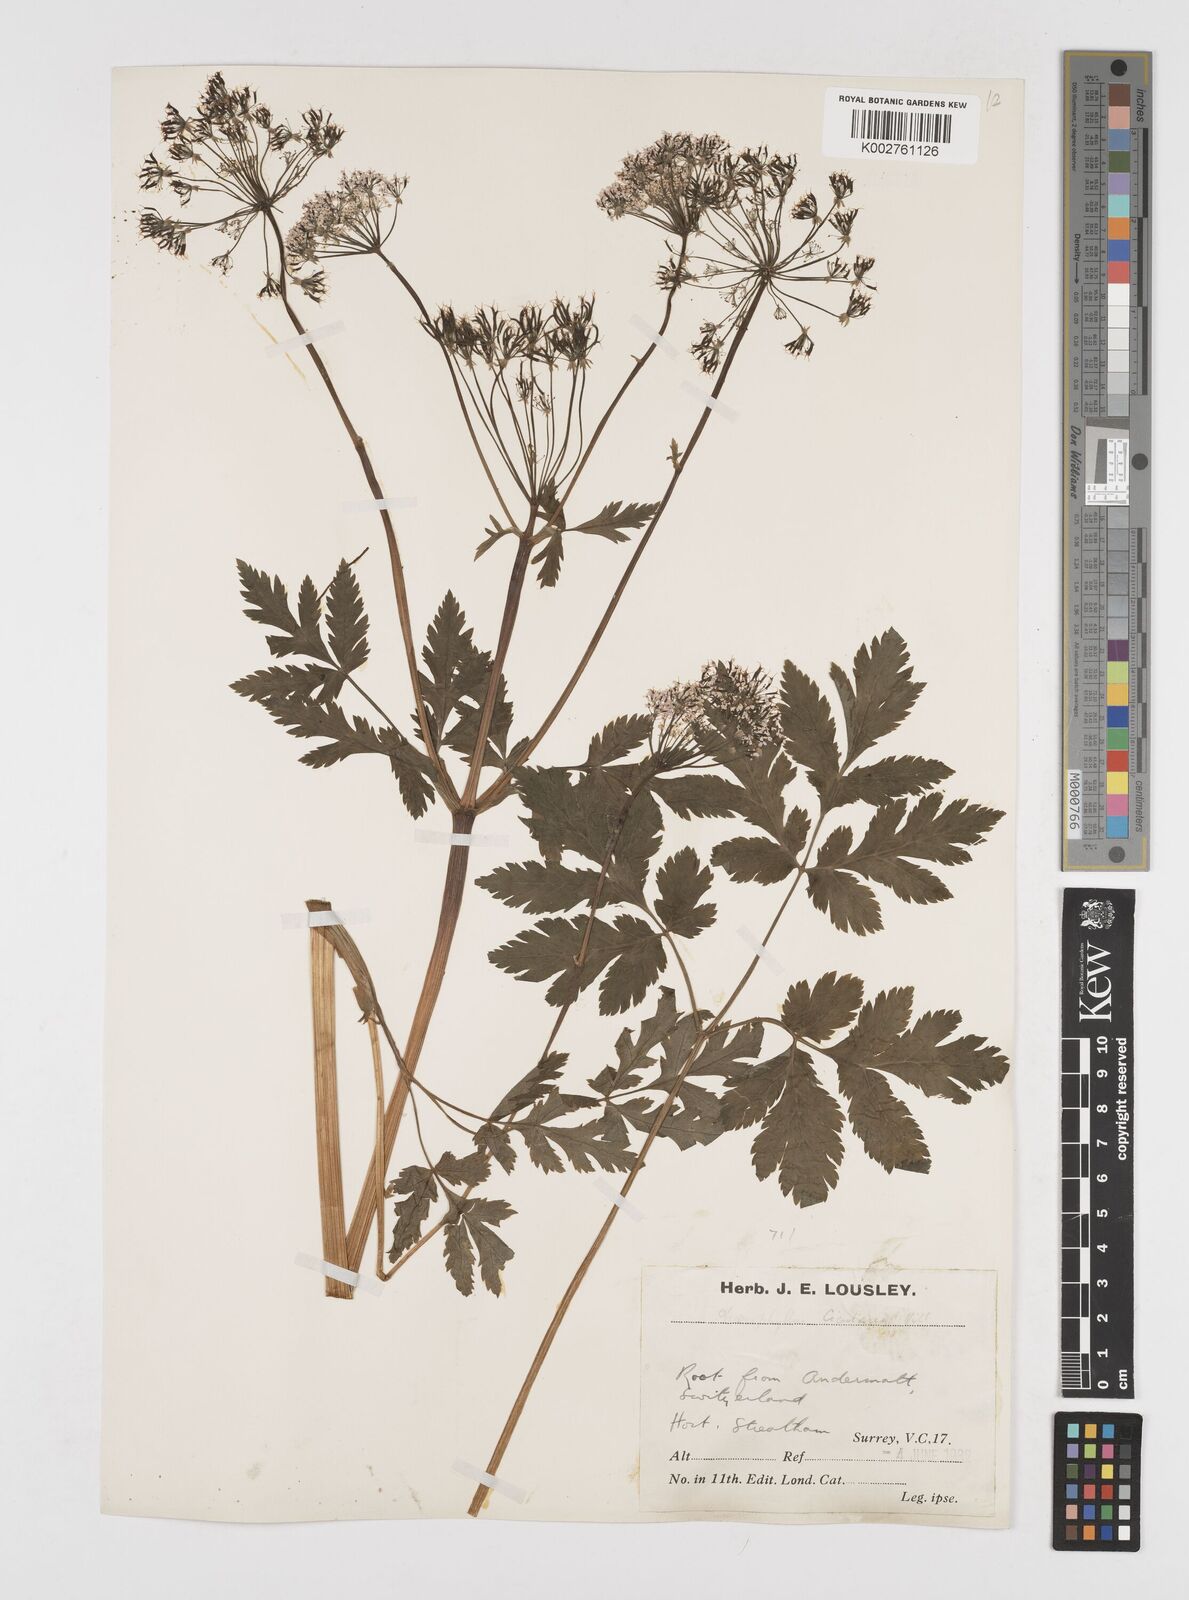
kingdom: Plantae
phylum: Tracheophyta
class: Magnoliopsida
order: Apiales
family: Apiaceae
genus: Chaerophyllum
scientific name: Chaerophyllum hirsutum
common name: Hairy chervil
